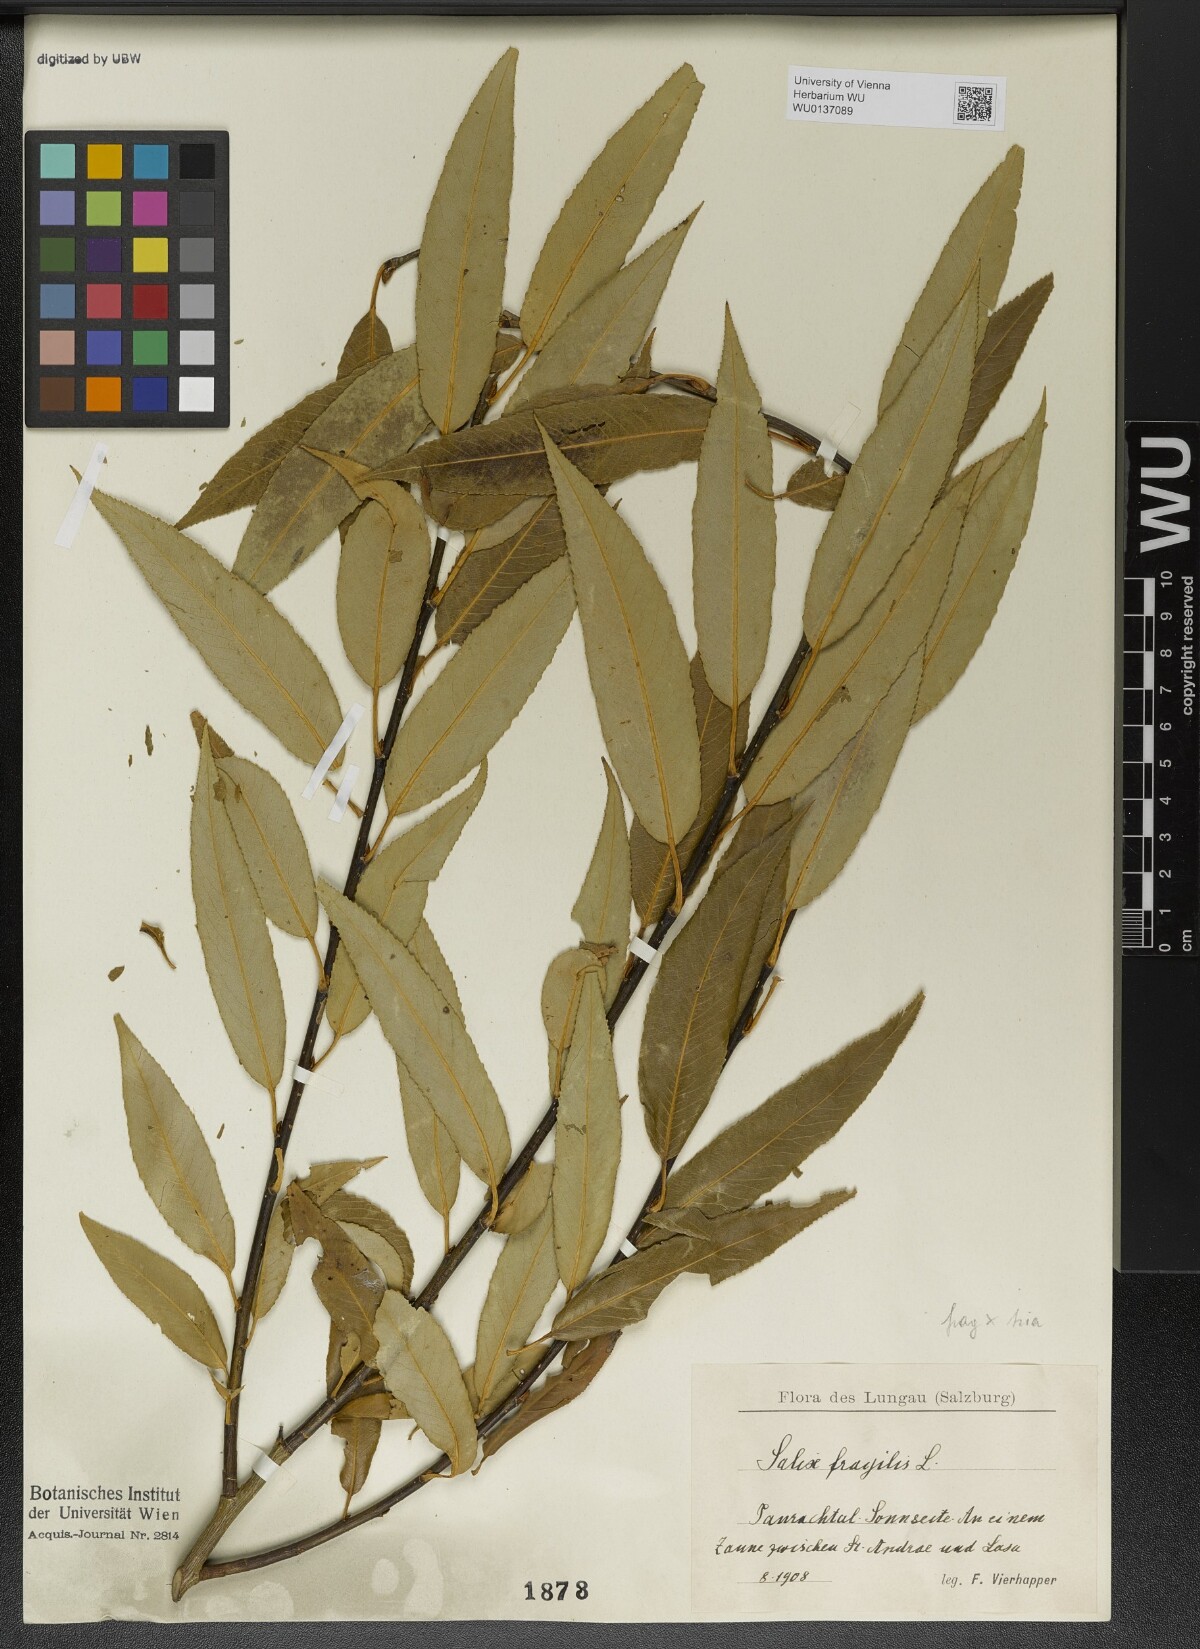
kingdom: Plantae
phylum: Tracheophyta
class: Magnoliopsida
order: Malpighiales
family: Salicaceae
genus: Salix
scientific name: Salix fragilis
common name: Crack willow
